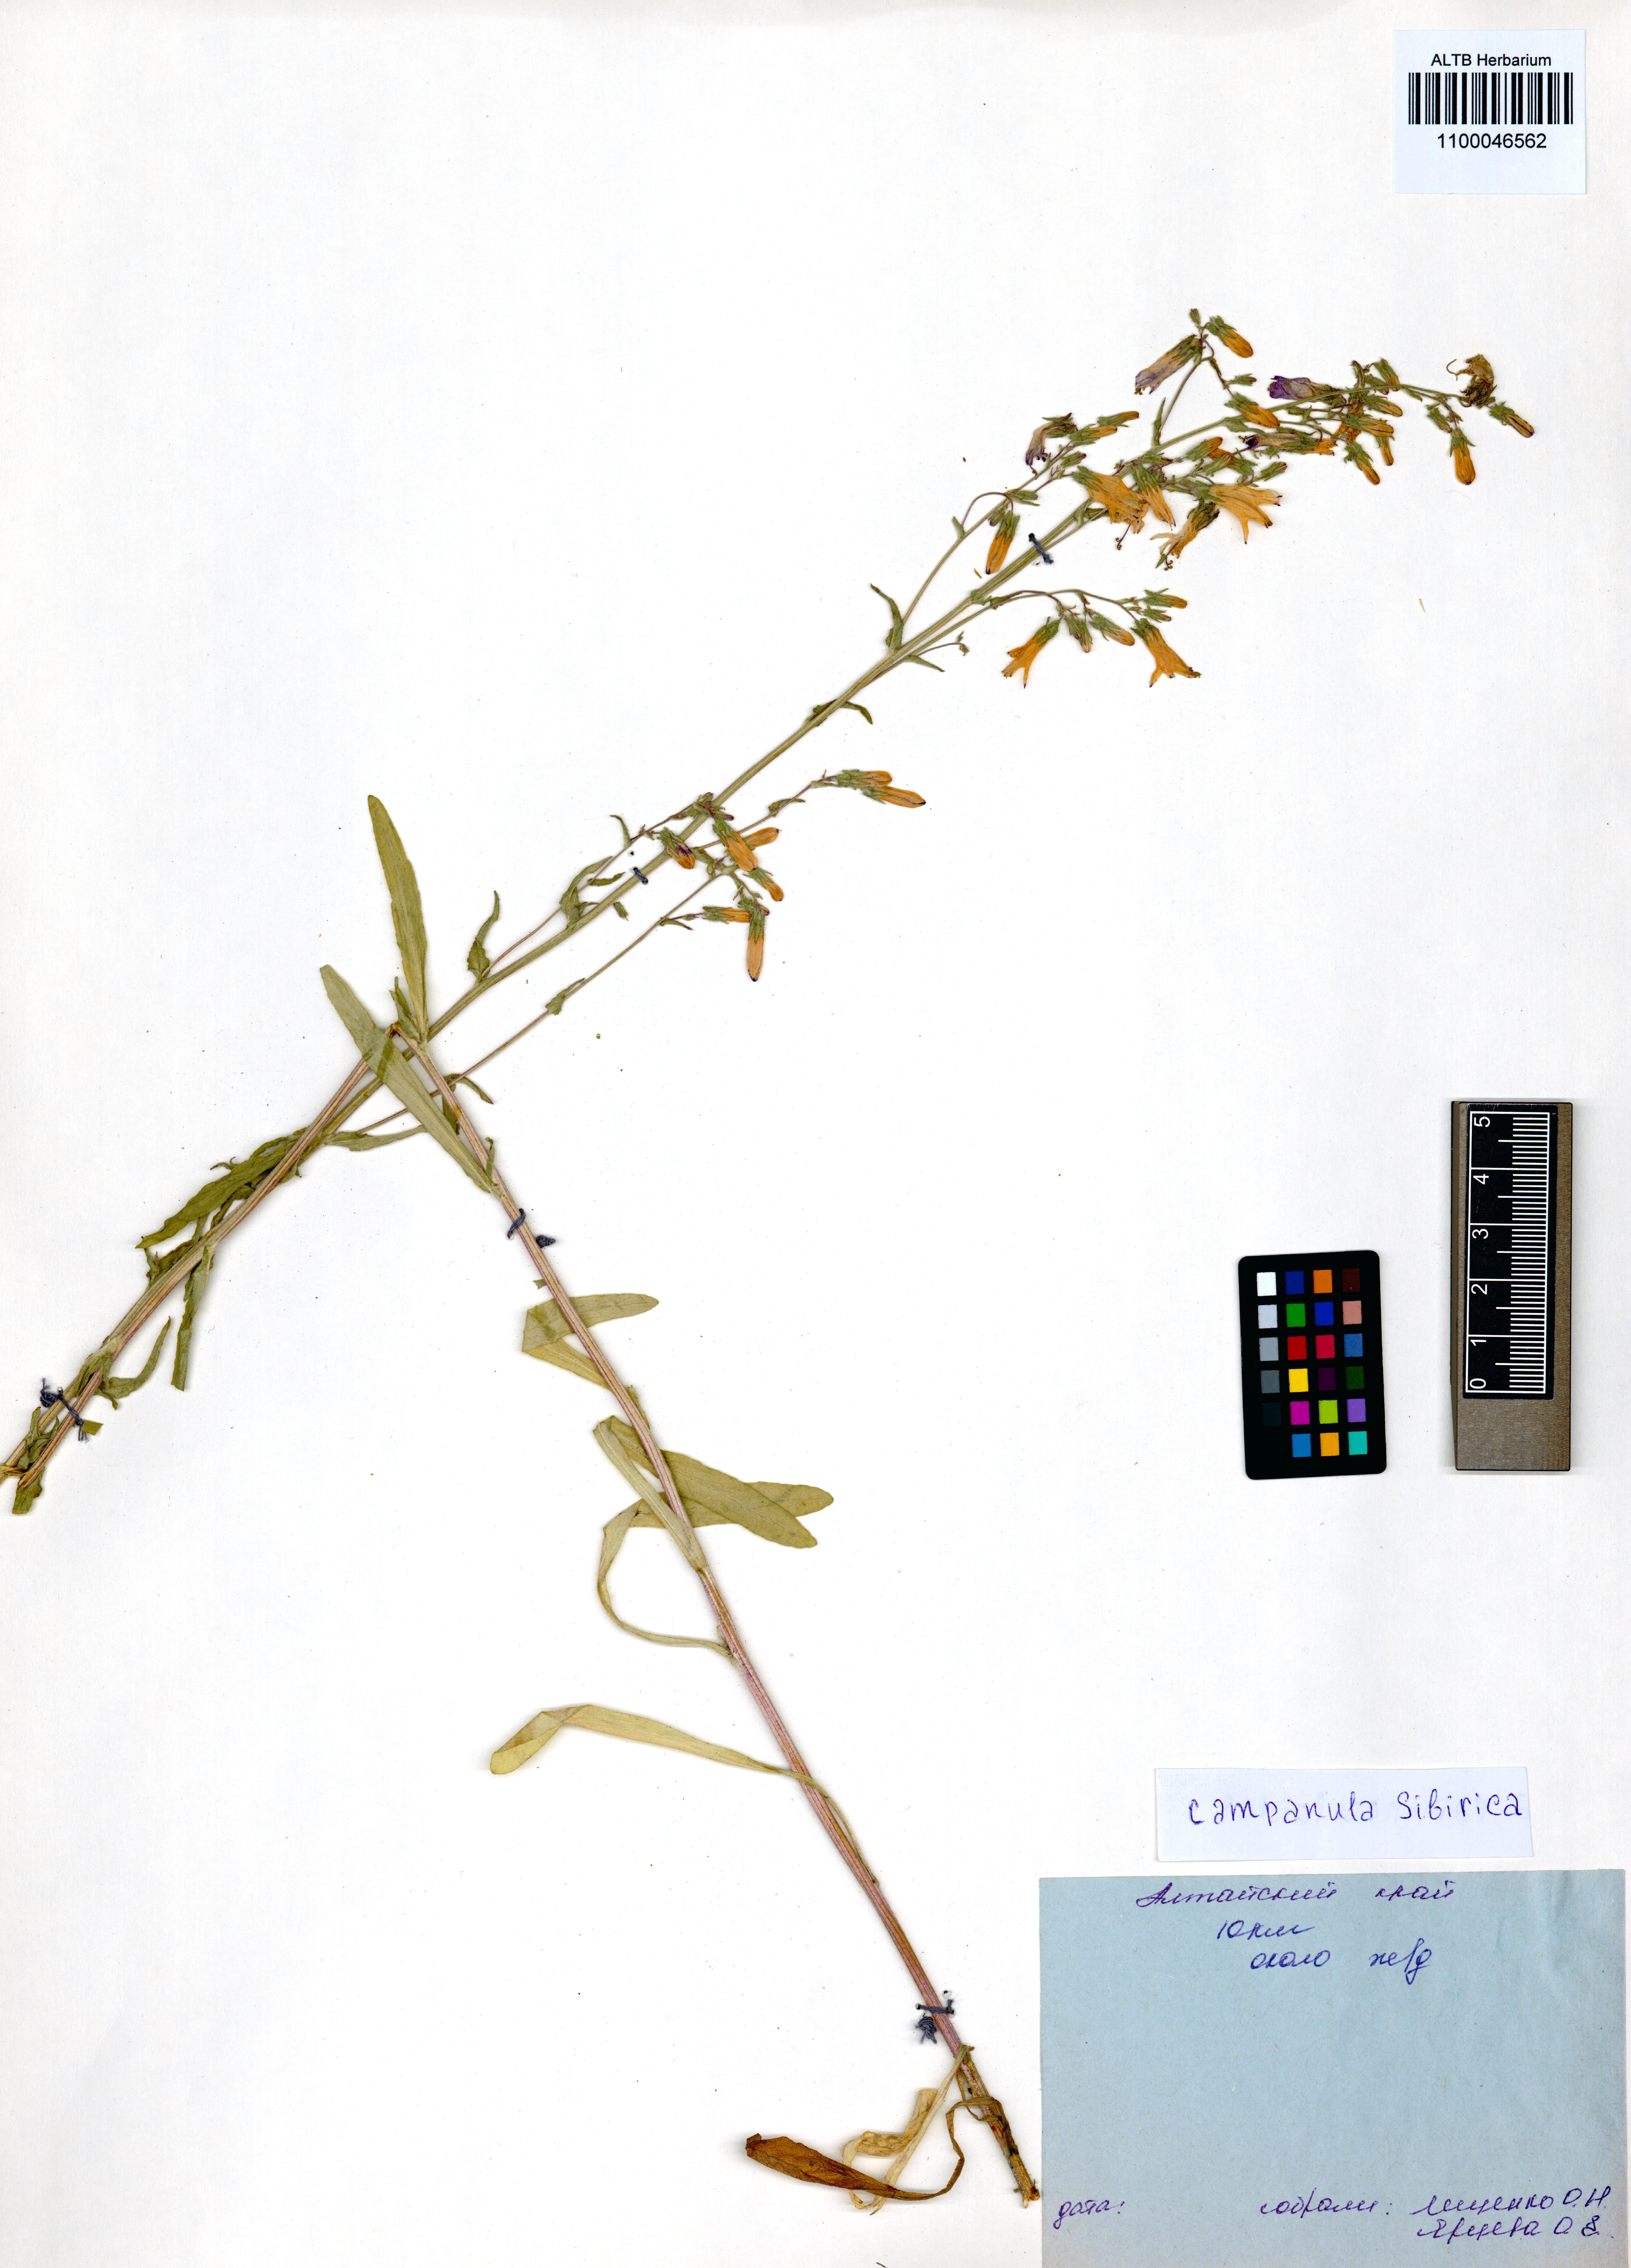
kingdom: Plantae
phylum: Tracheophyta
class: Magnoliopsida
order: Asterales
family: Campanulaceae
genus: Campanula
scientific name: Campanula sibirica
